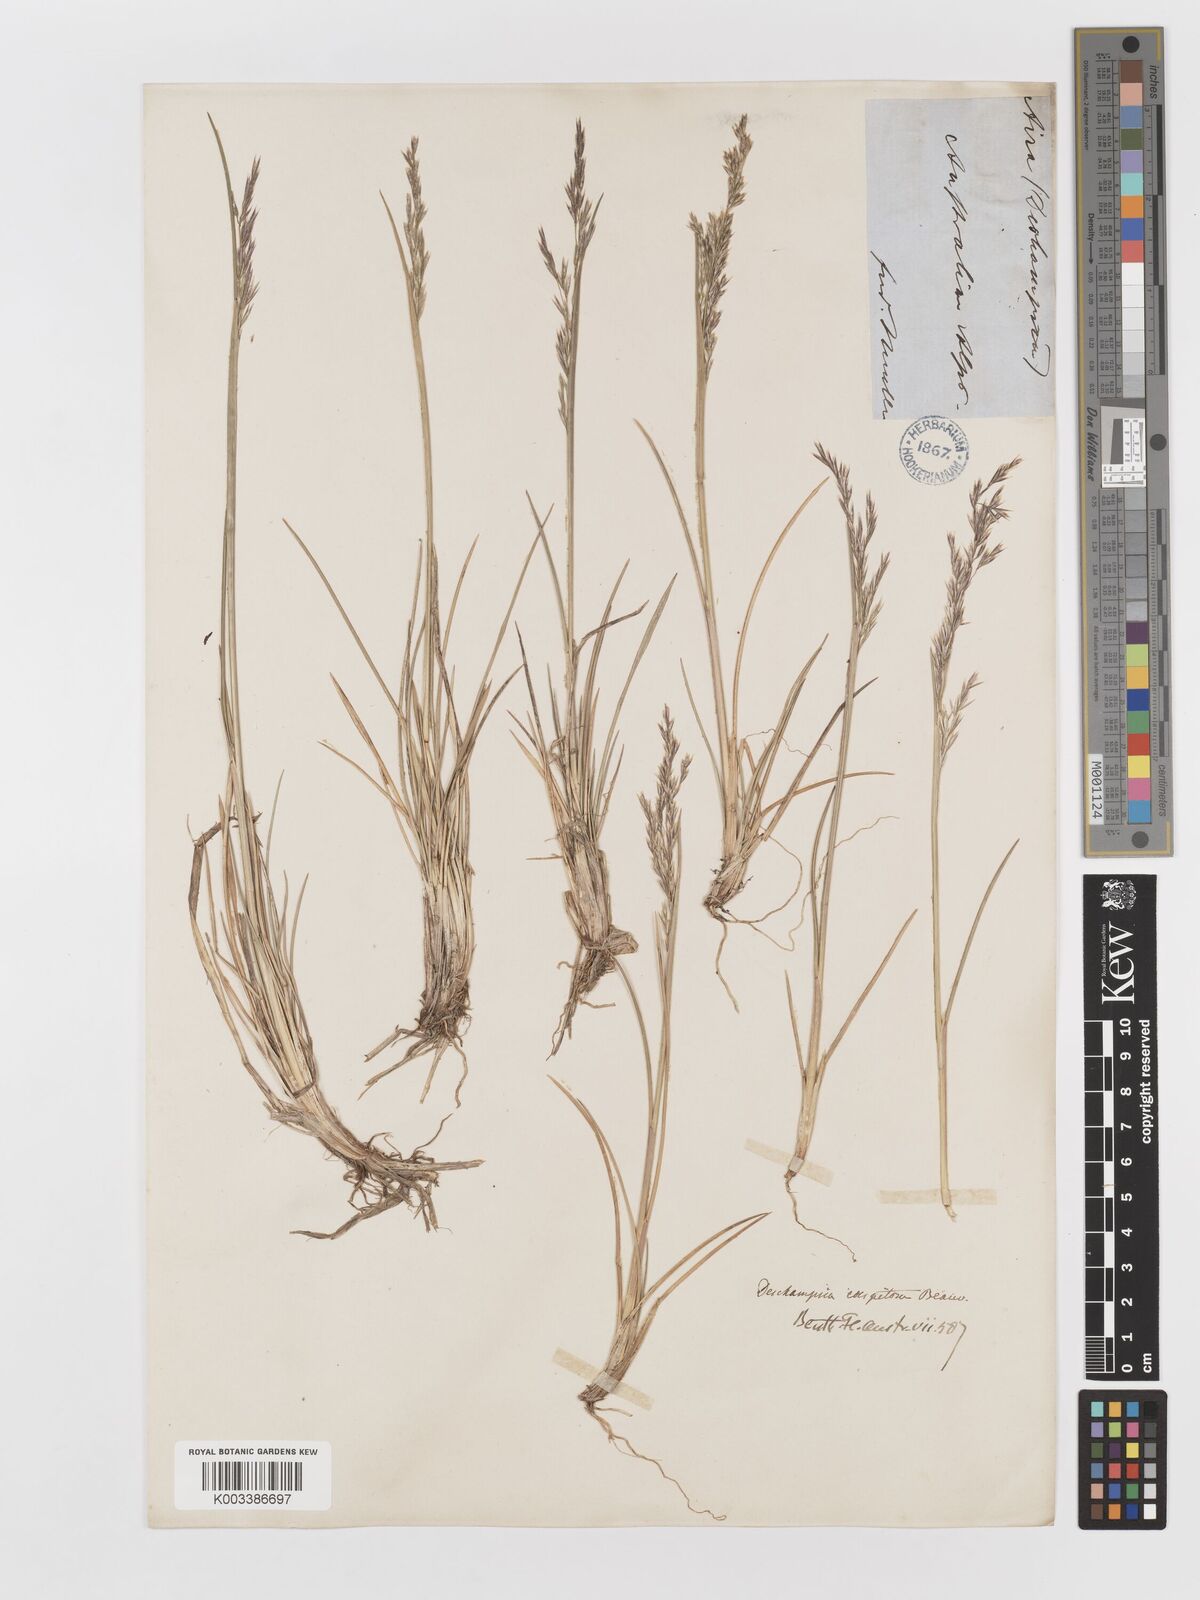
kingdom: Plantae
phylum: Tracheophyta
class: Liliopsida
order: Poales
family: Poaceae
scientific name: Poaceae
